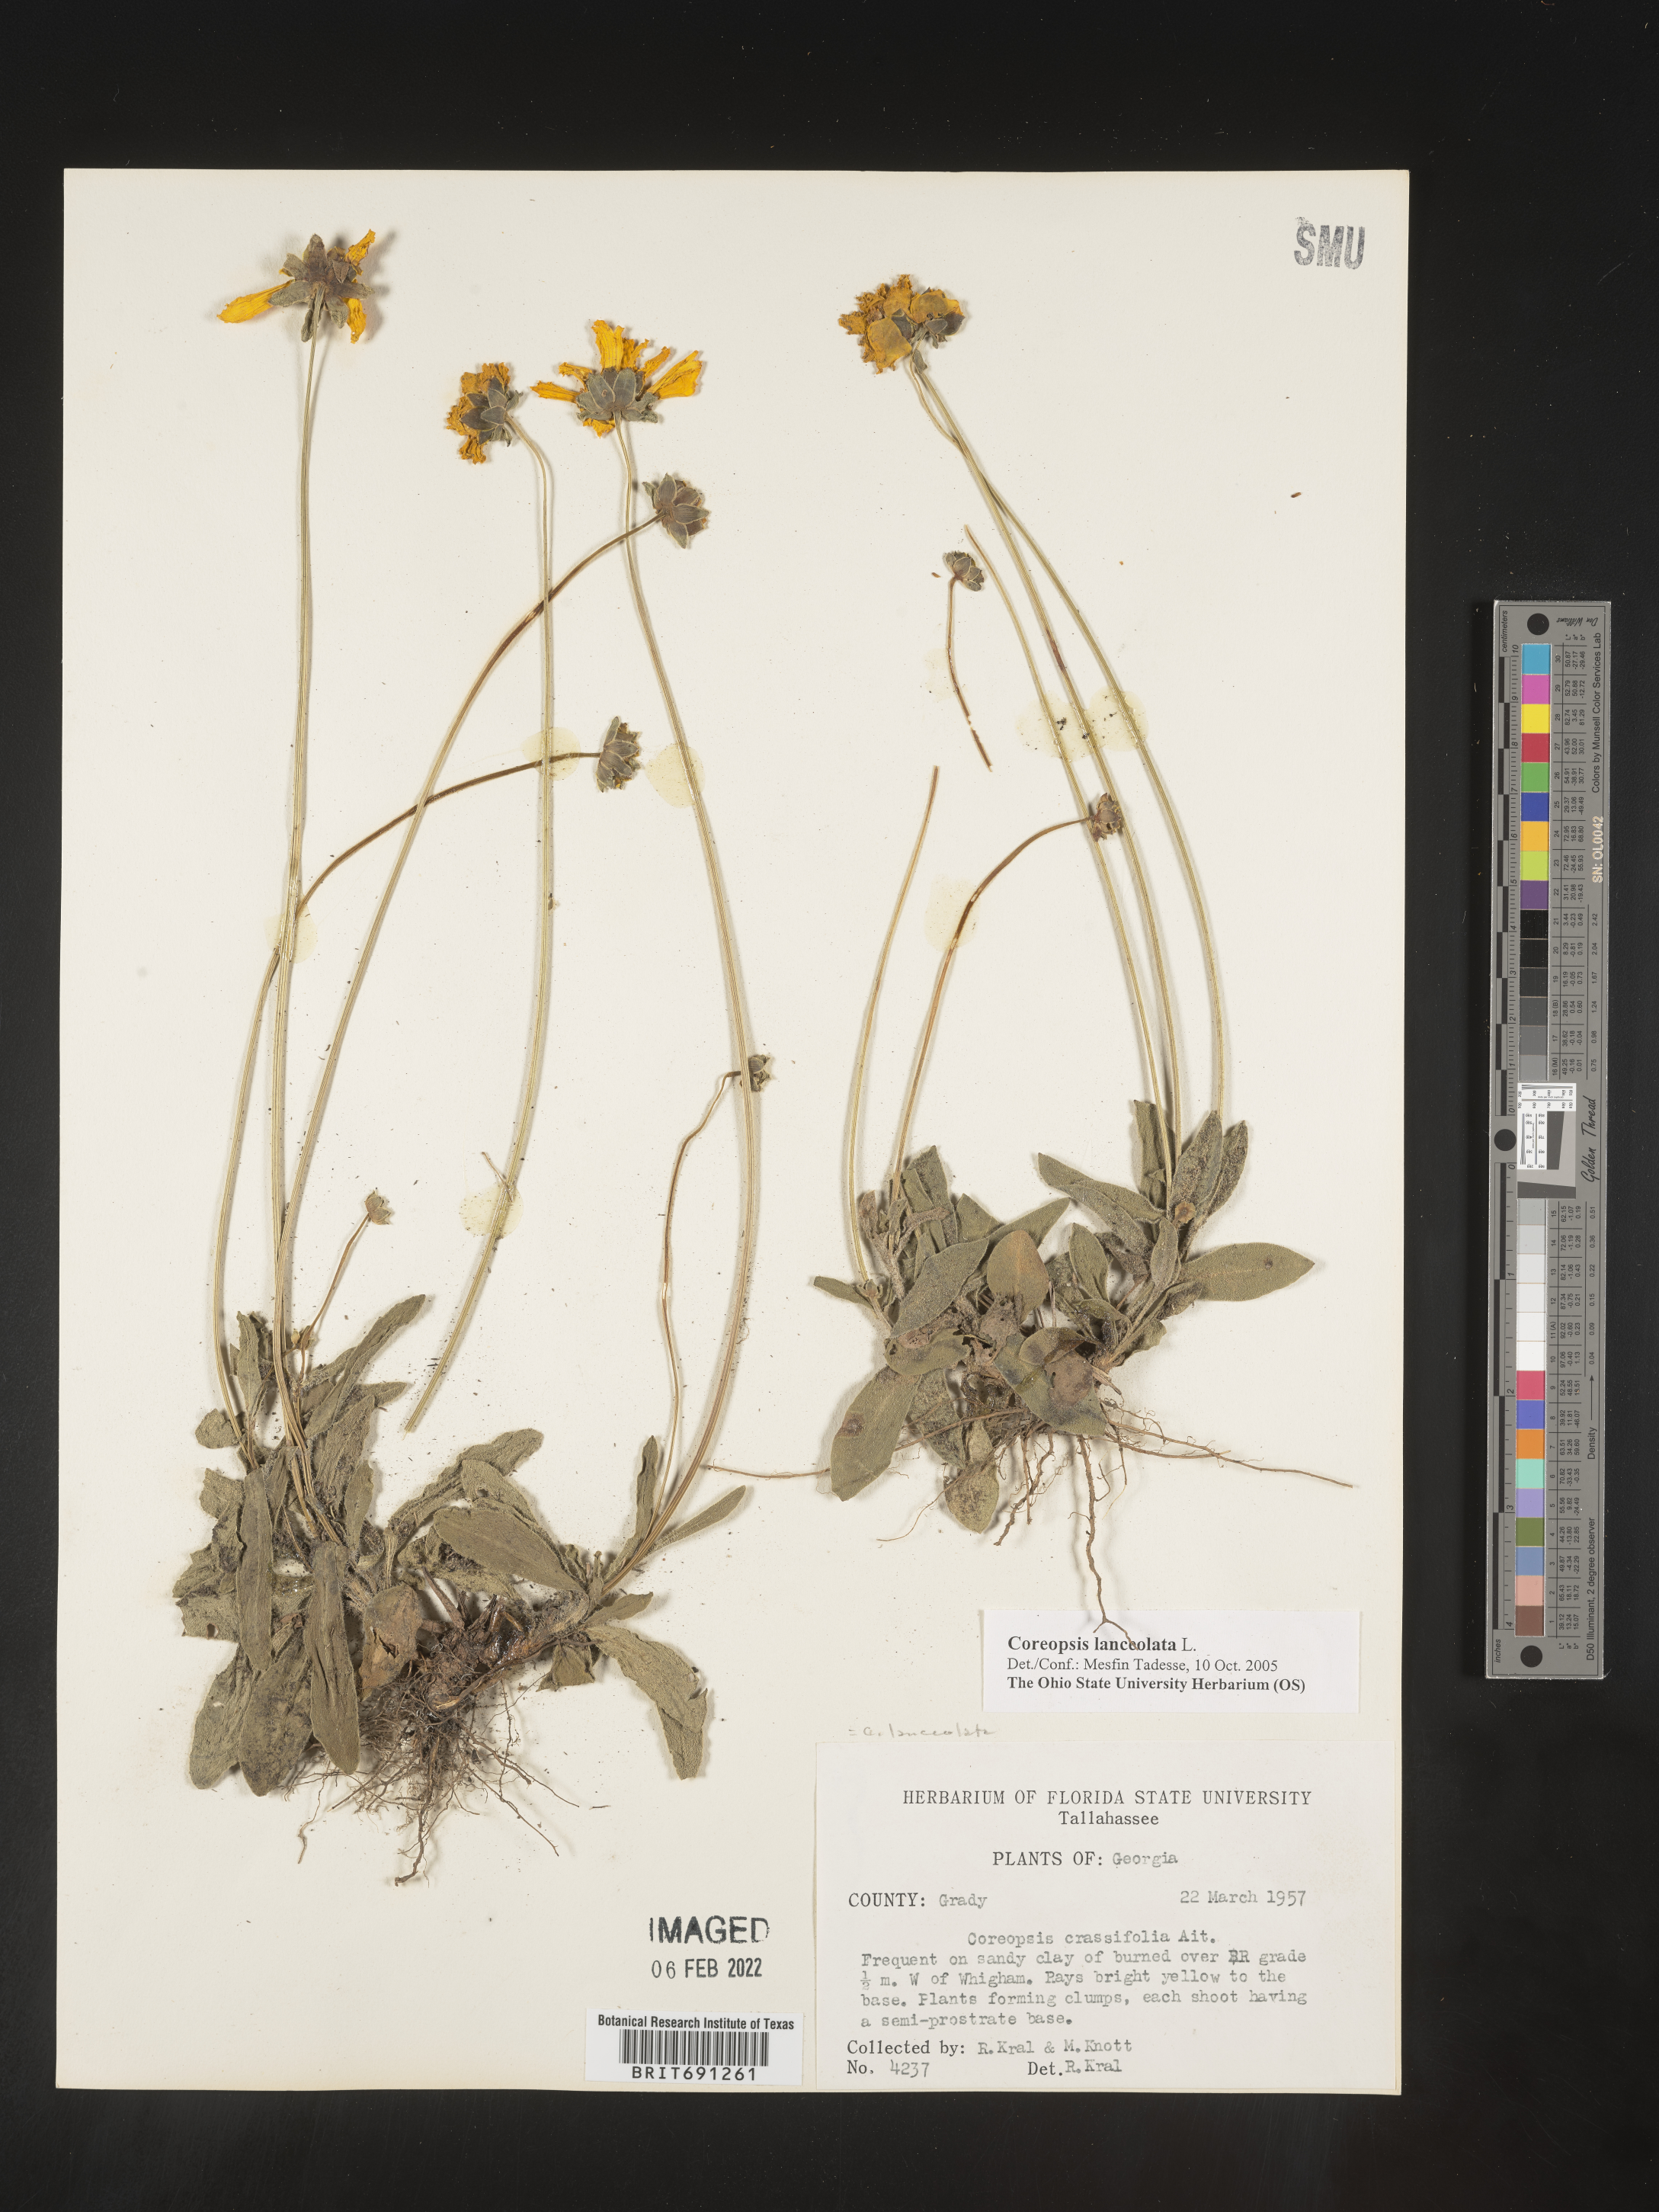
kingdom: Plantae
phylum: Tracheophyta
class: Magnoliopsida
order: Asterales
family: Asteraceae
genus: Coreopsis
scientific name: Coreopsis lanceolata
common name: Garden coreopsis
